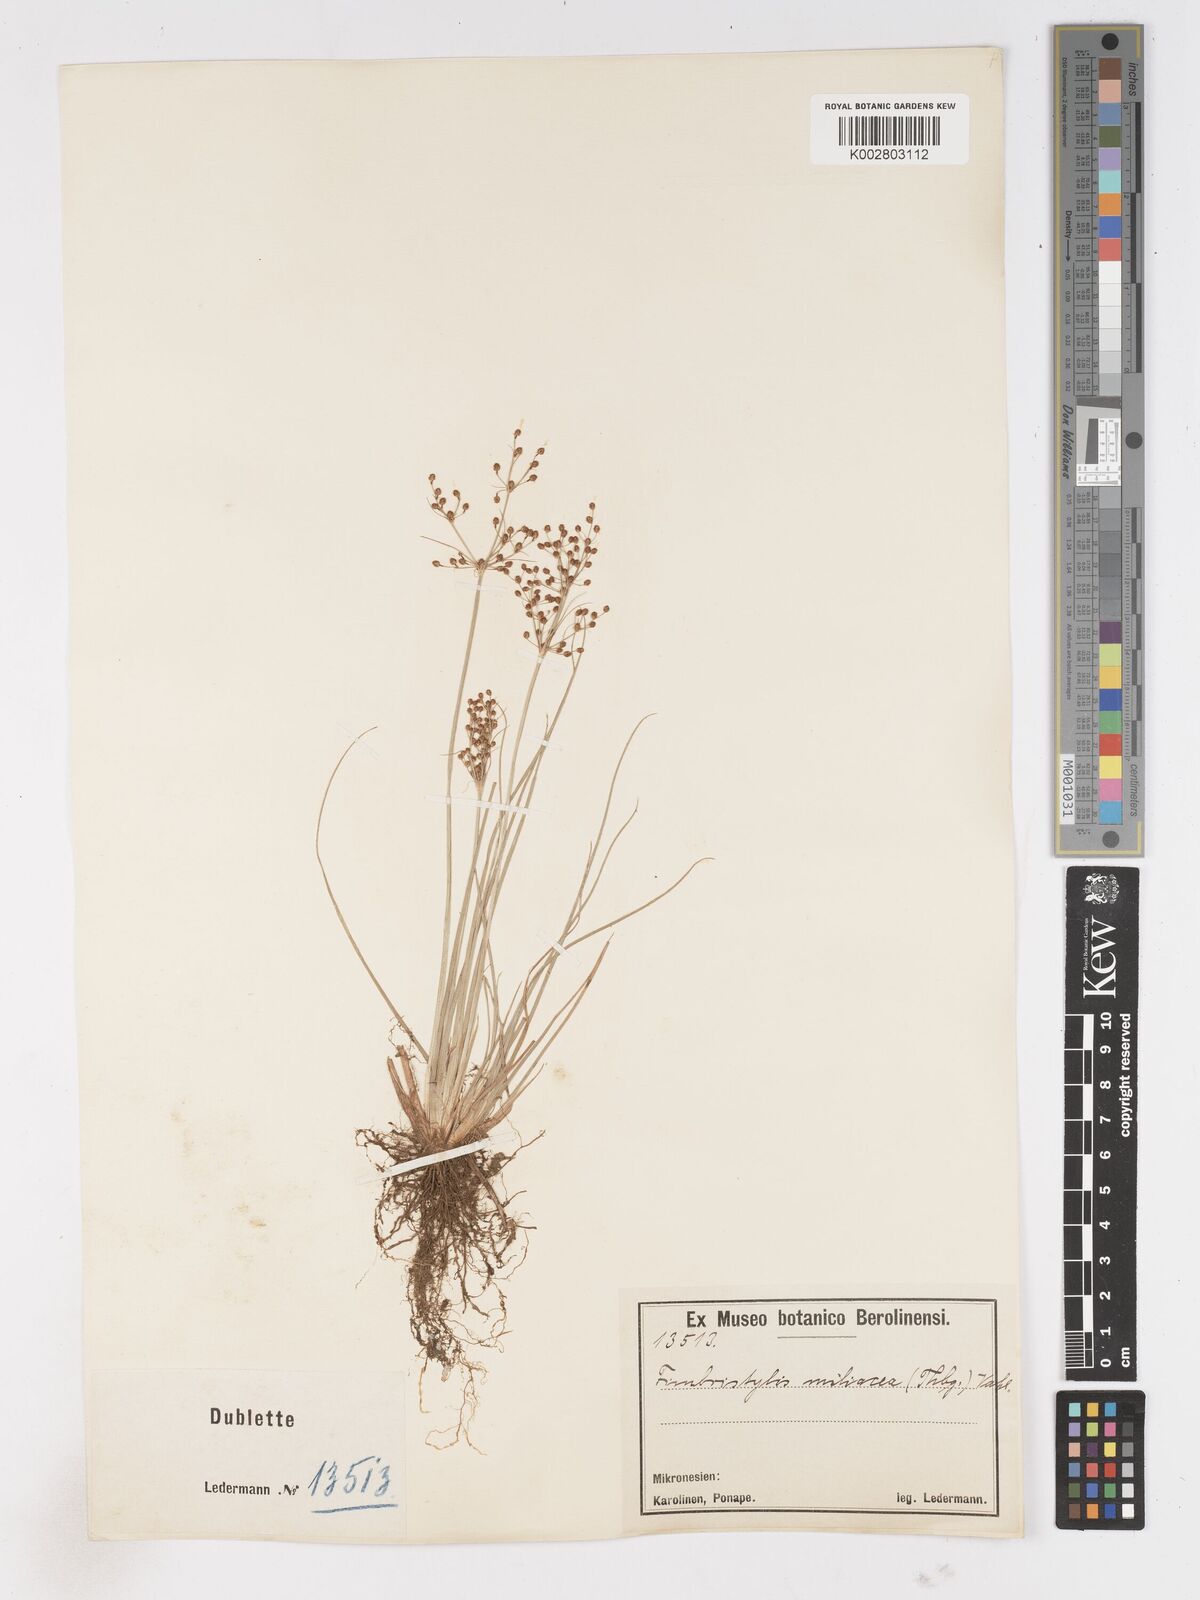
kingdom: Plantae
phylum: Tracheophyta
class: Liliopsida
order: Poales
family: Cyperaceae
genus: Fimbristylis
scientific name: Fimbristylis littoralis
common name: Fimbry
